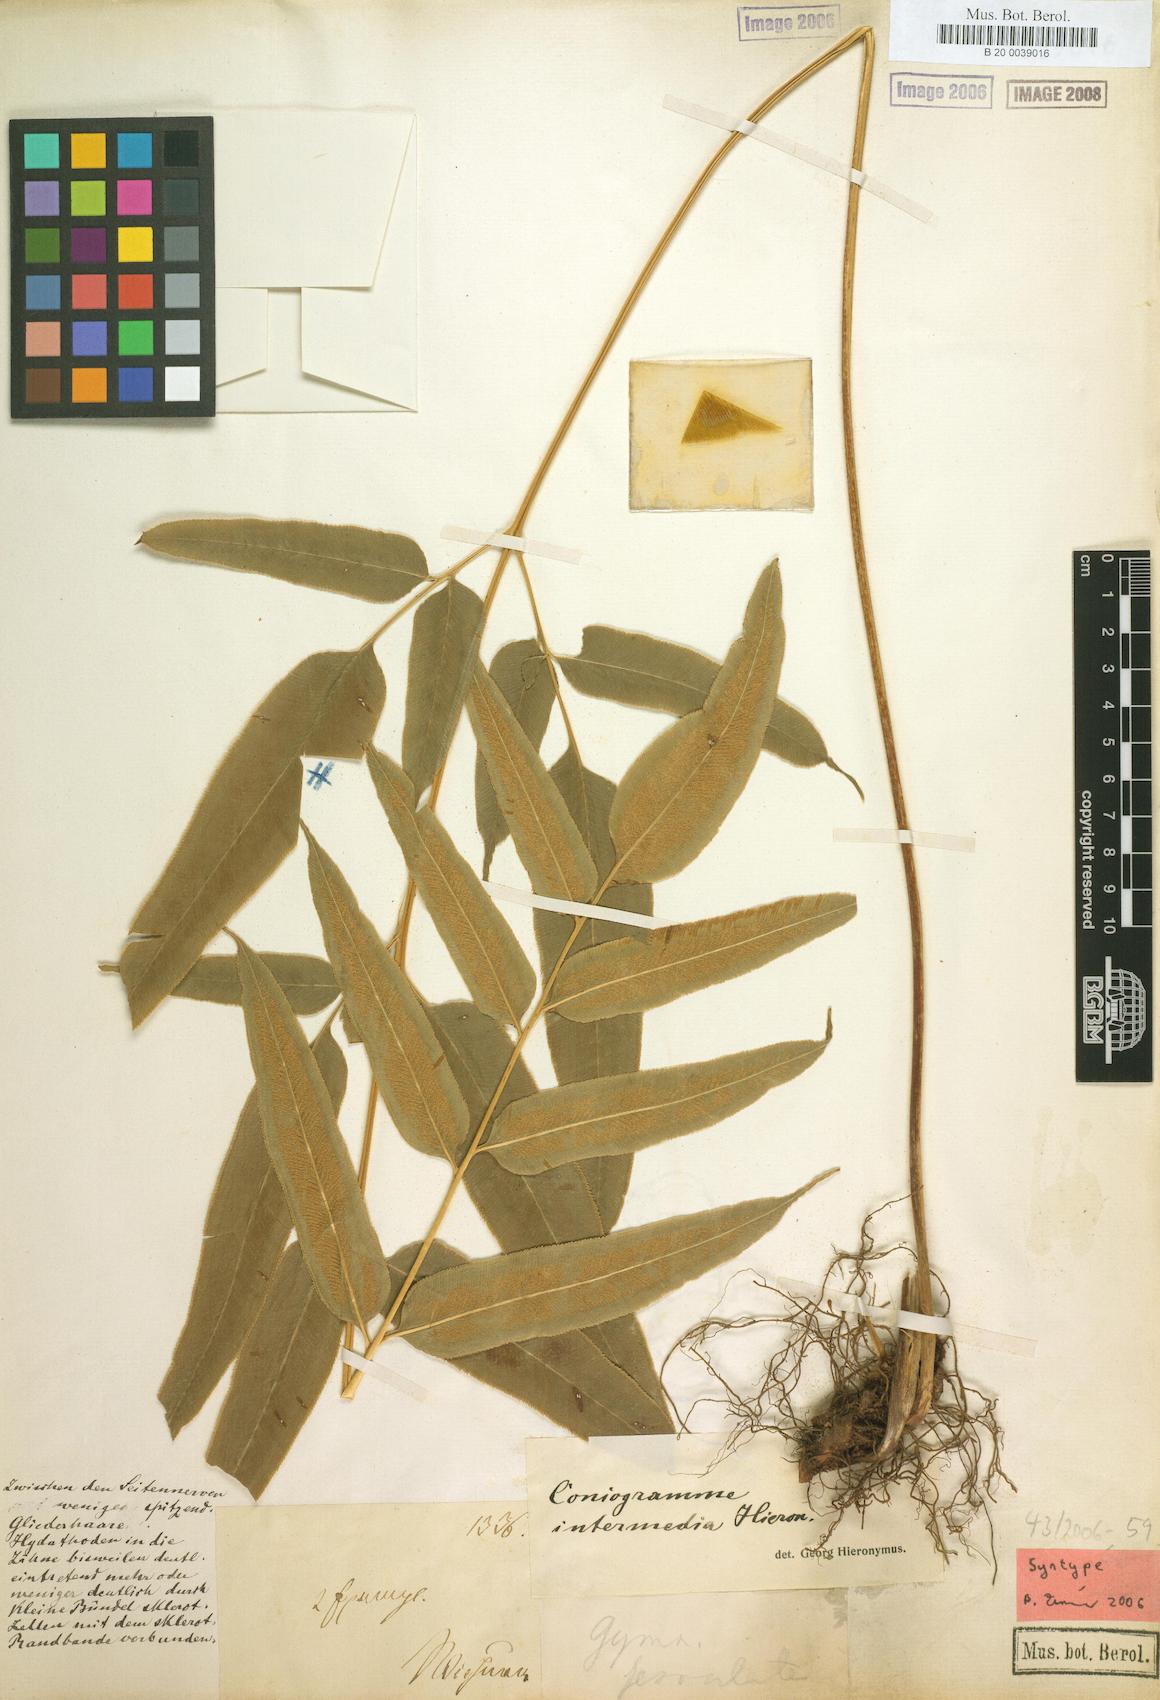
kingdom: Plantae
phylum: Tracheophyta
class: Polypodiopsida
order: Polypodiales
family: Pteridaceae
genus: Coniogramme
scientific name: Coniogramme intermedia
